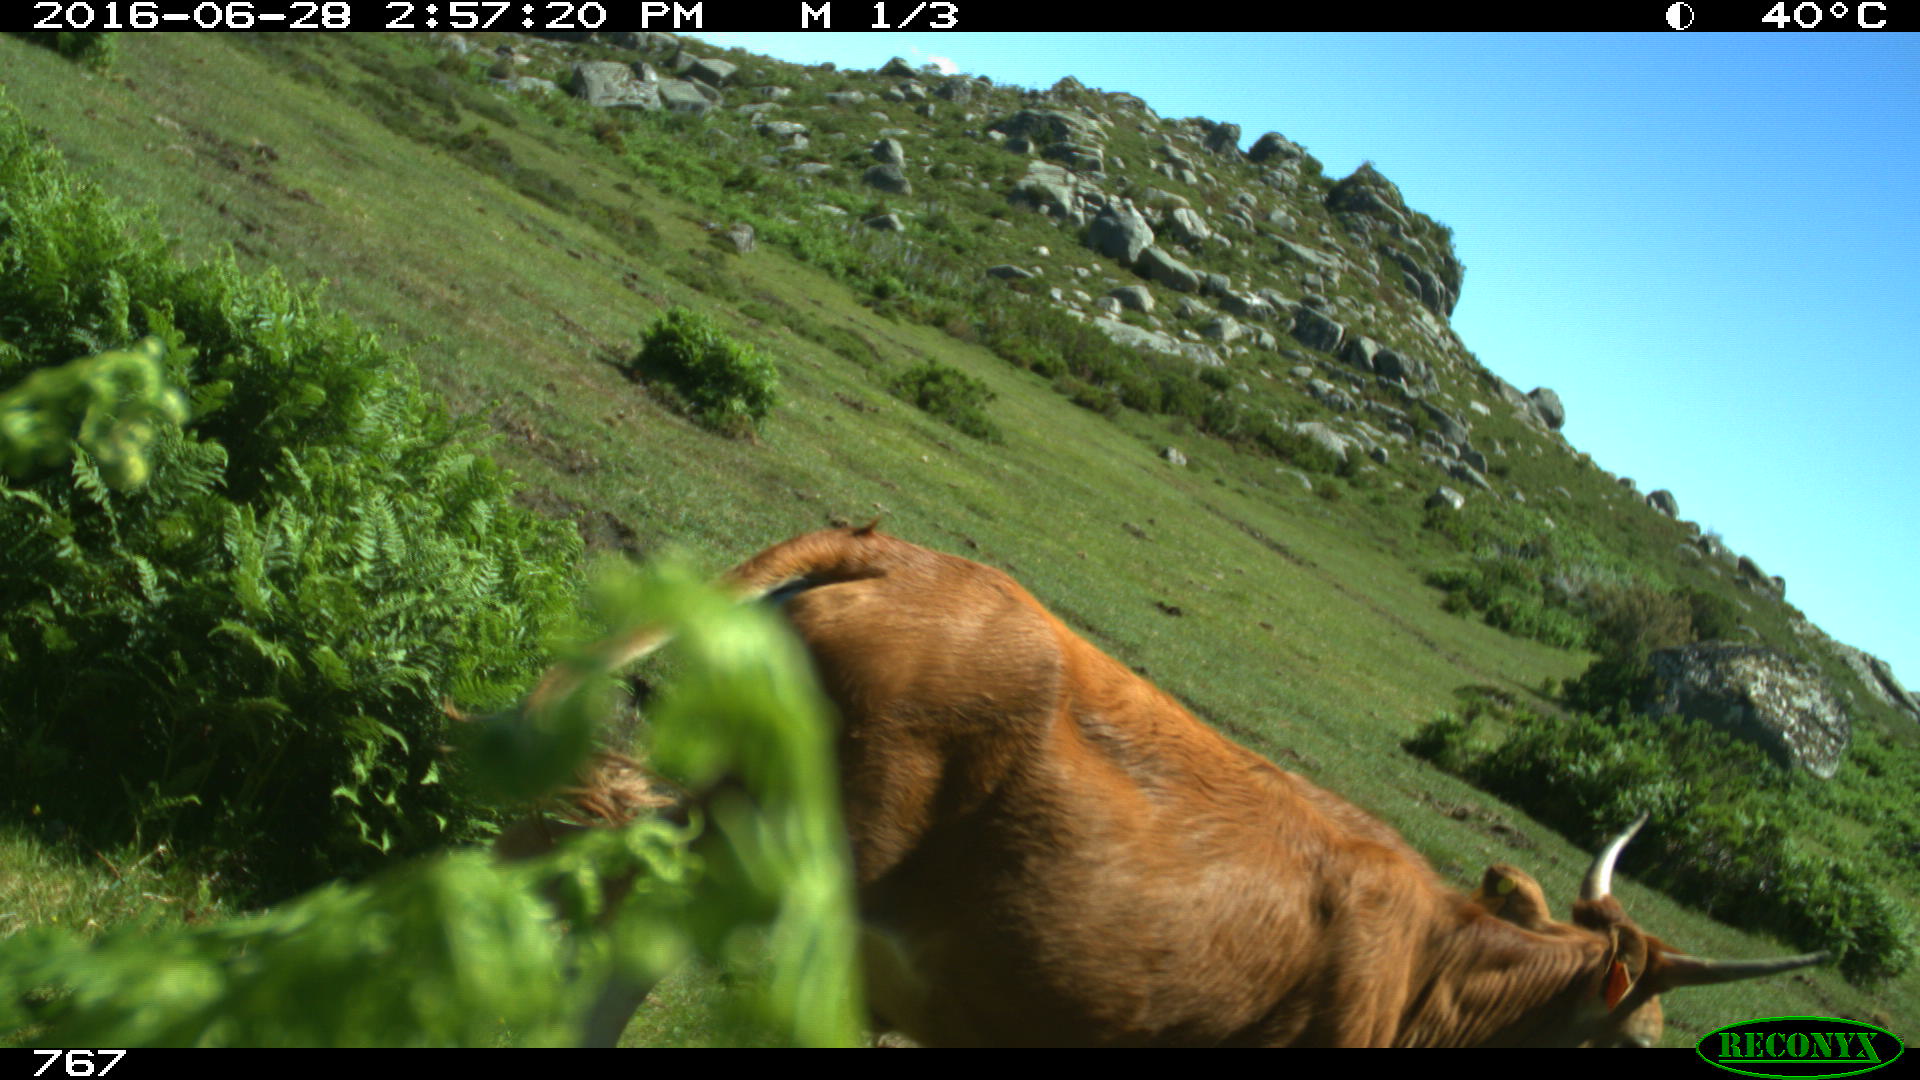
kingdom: Animalia
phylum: Chordata
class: Mammalia
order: Artiodactyla
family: Bovidae
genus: Bos
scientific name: Bos taurus
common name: Domesticated cattle
